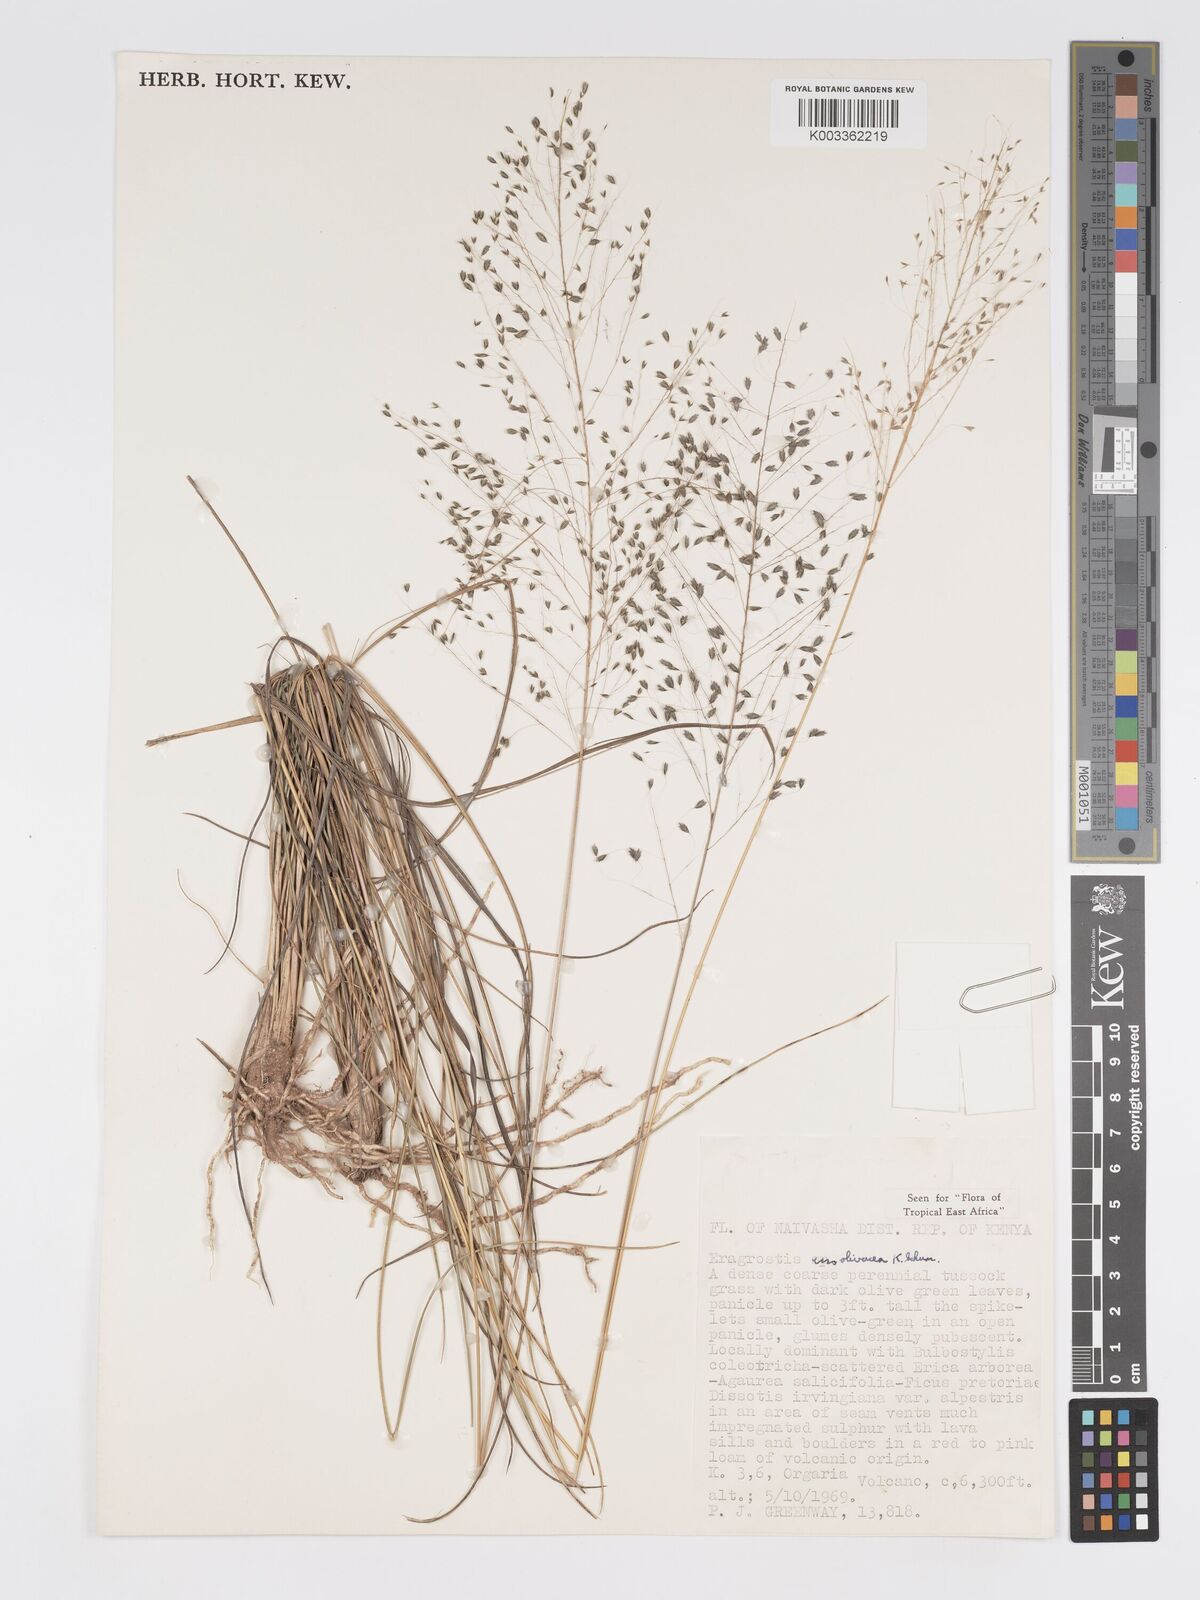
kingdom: Plantae
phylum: Tracheophyta
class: Liliopsida
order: Poales
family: Poaceae
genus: Eragrostis
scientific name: Eragrostis olivacea
